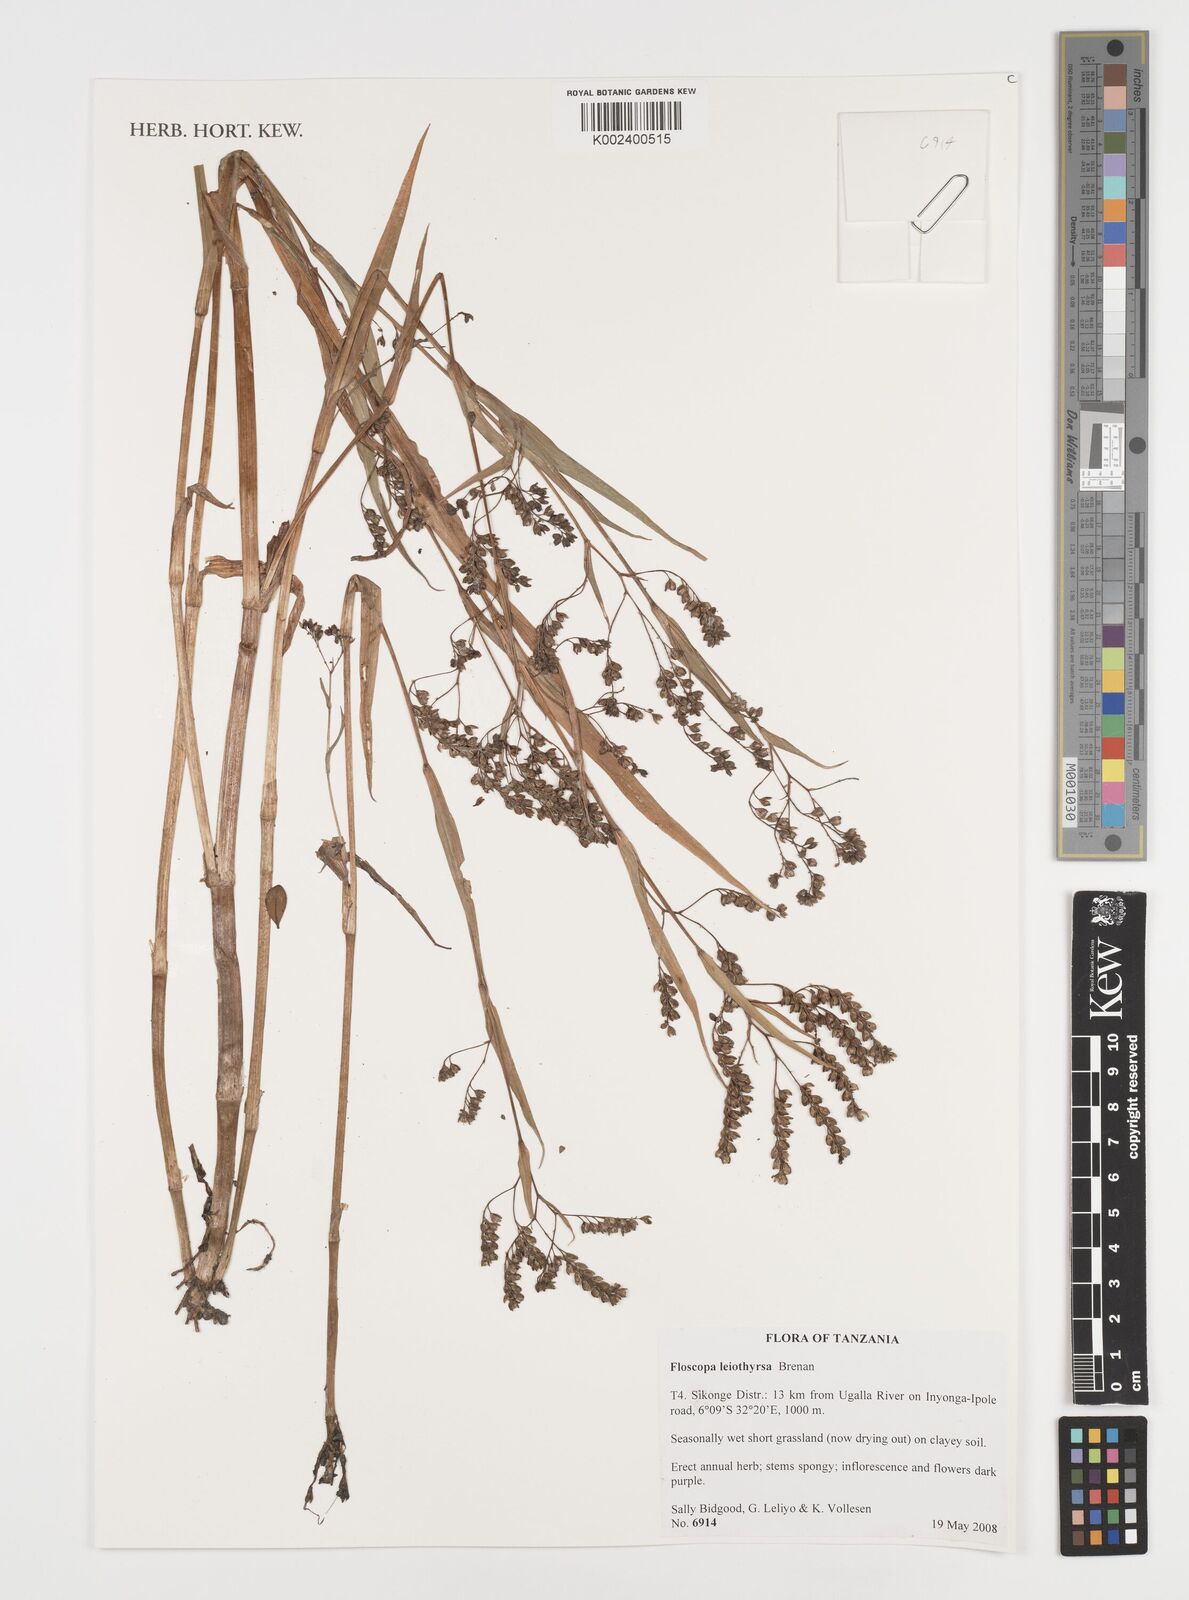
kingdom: Plantae
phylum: Tracheophyta
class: Liliopsida
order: Commelinales
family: Commelinaceae
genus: Floscopa
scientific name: Floscopa leiothyrsa
